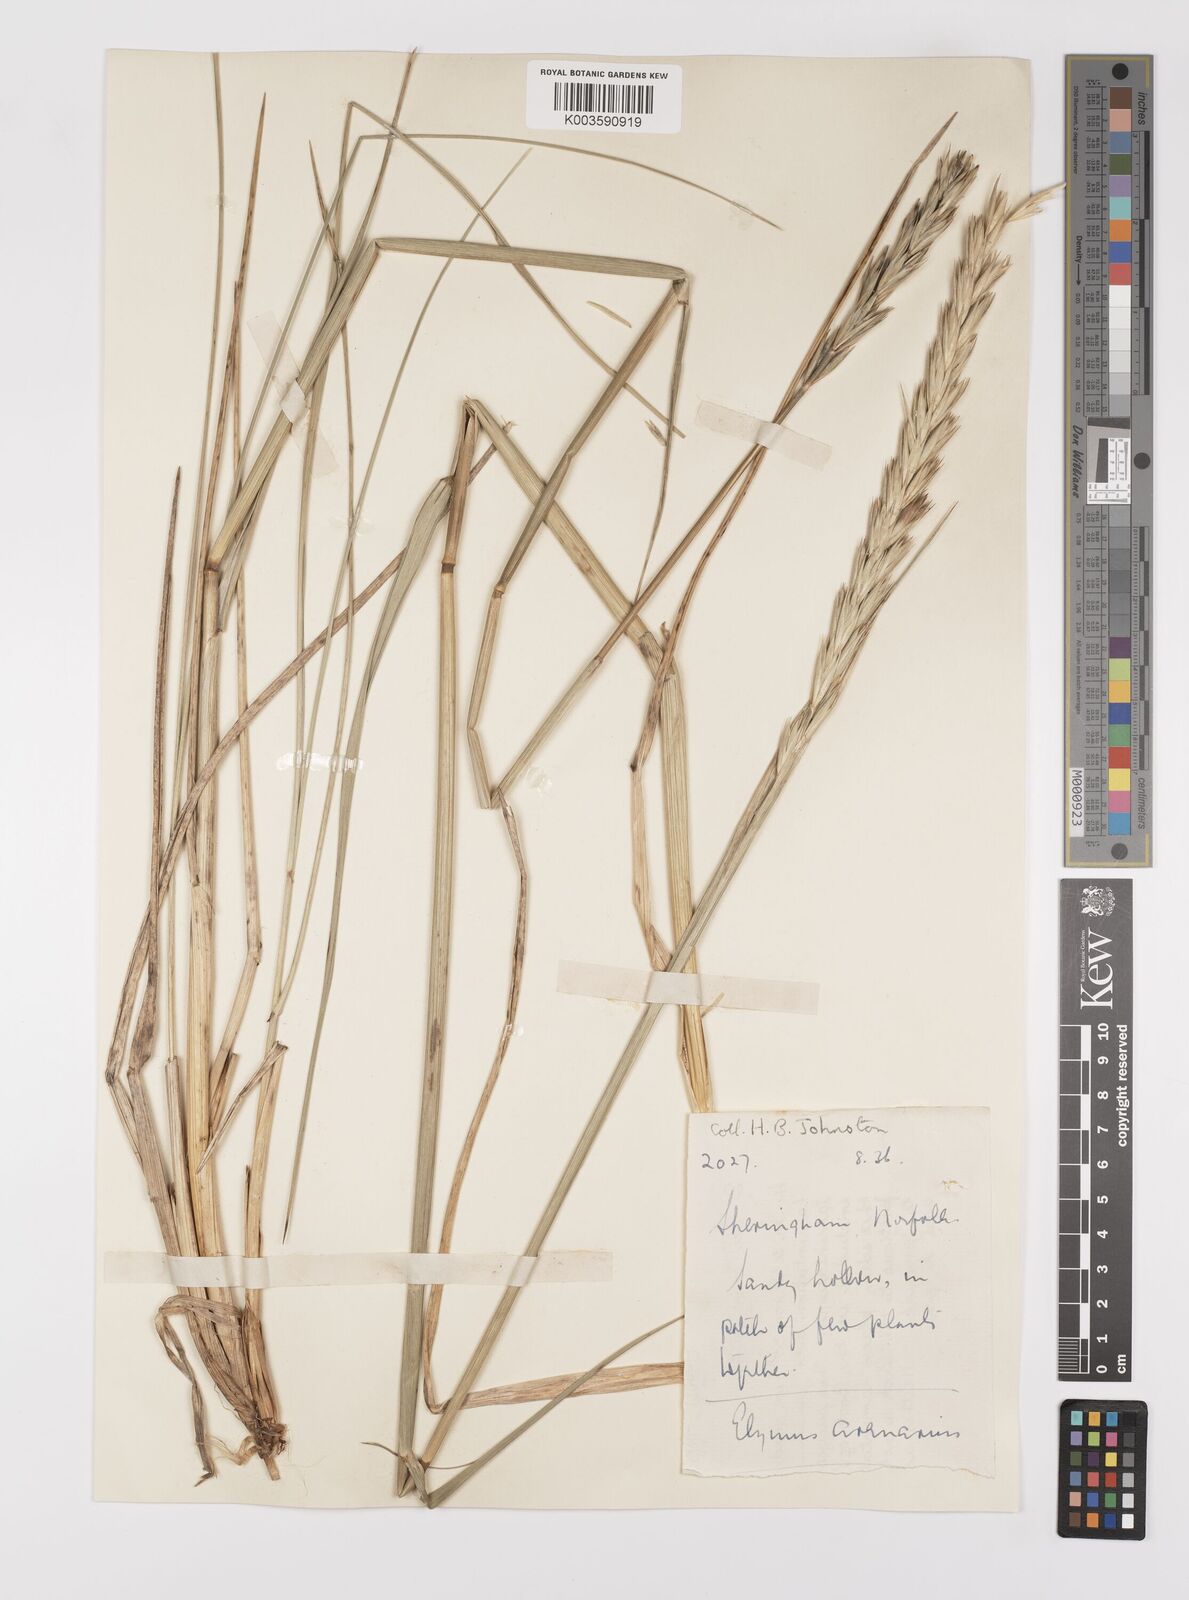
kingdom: Plantae
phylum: Tracheophyta
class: Liliopsida
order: Poales
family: Poaceae
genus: Leymus
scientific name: Leymus arenarius
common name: Lyme-grass
